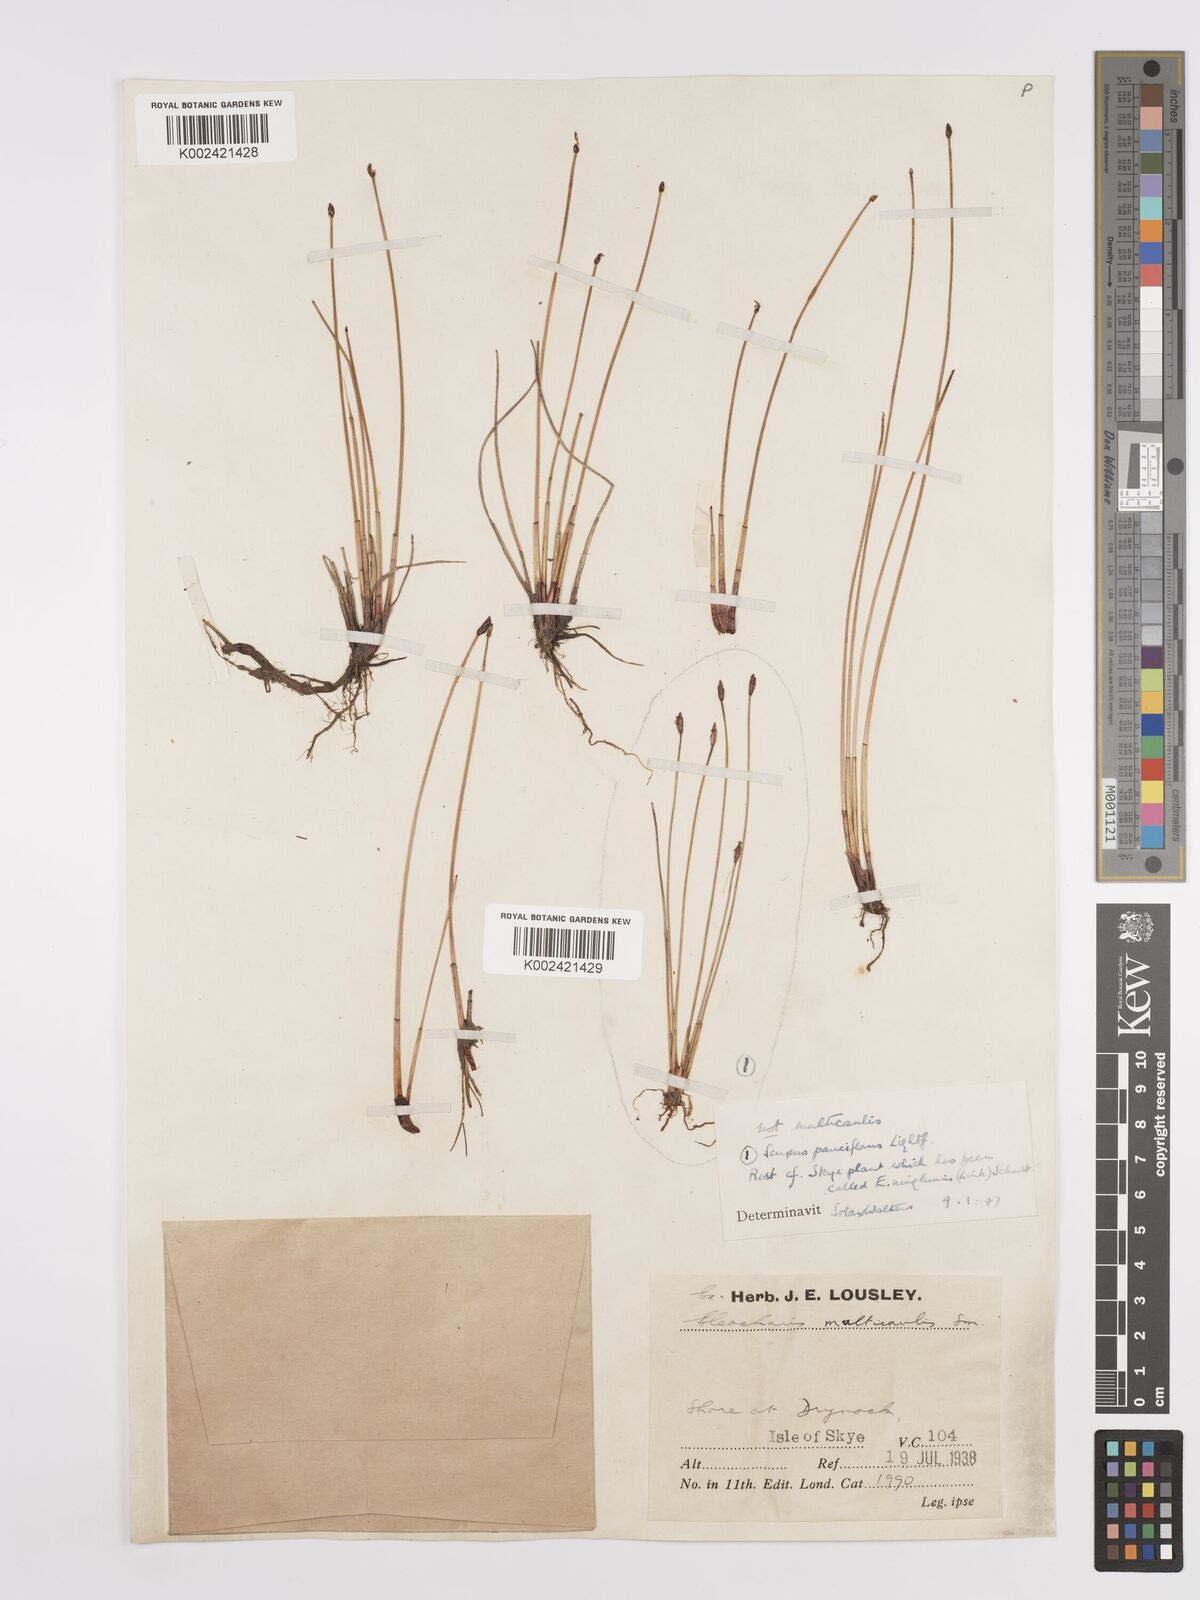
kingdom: Plantae
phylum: Tracheophyta
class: Liliopsida
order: Poales
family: Cyperaceae
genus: Eleocharis
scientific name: Eleocharis uniglumis
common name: Slender spike-rush
